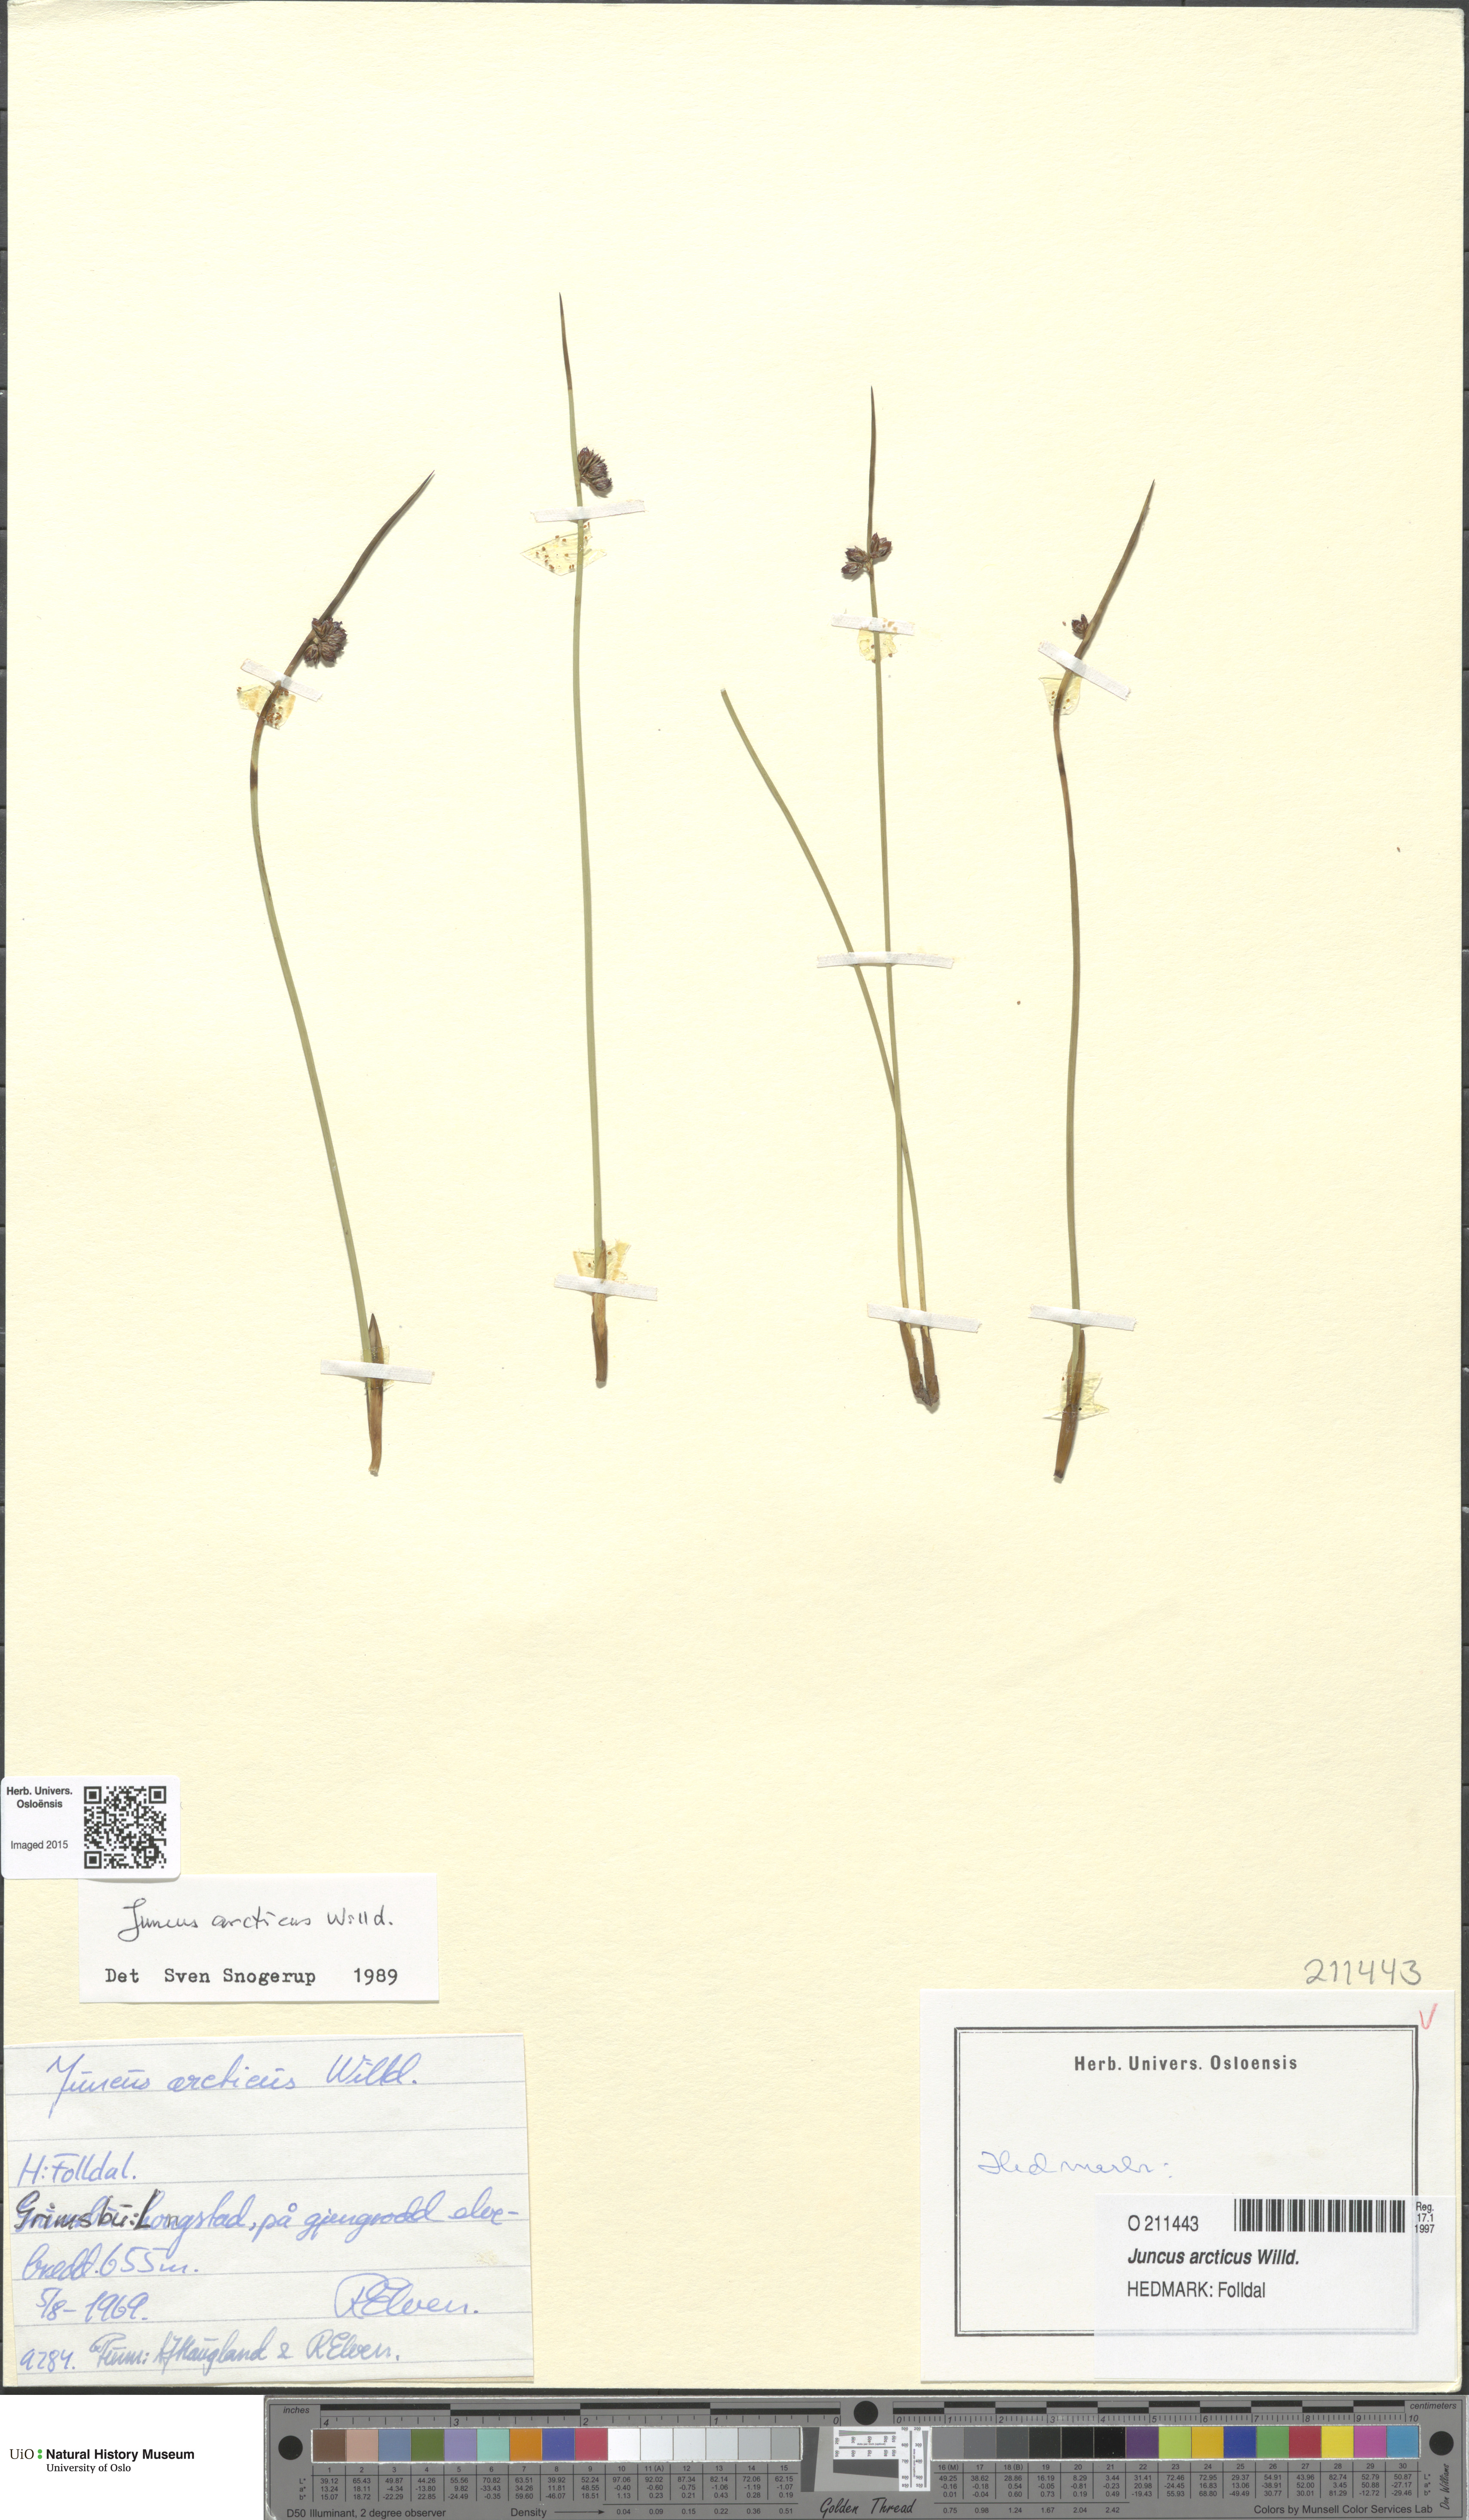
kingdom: Plantae
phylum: Tracheophyta
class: Liliopsida
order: Poales
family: Juncaceae
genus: Juncus
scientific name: Juncus arcticus
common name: Arctic rush
